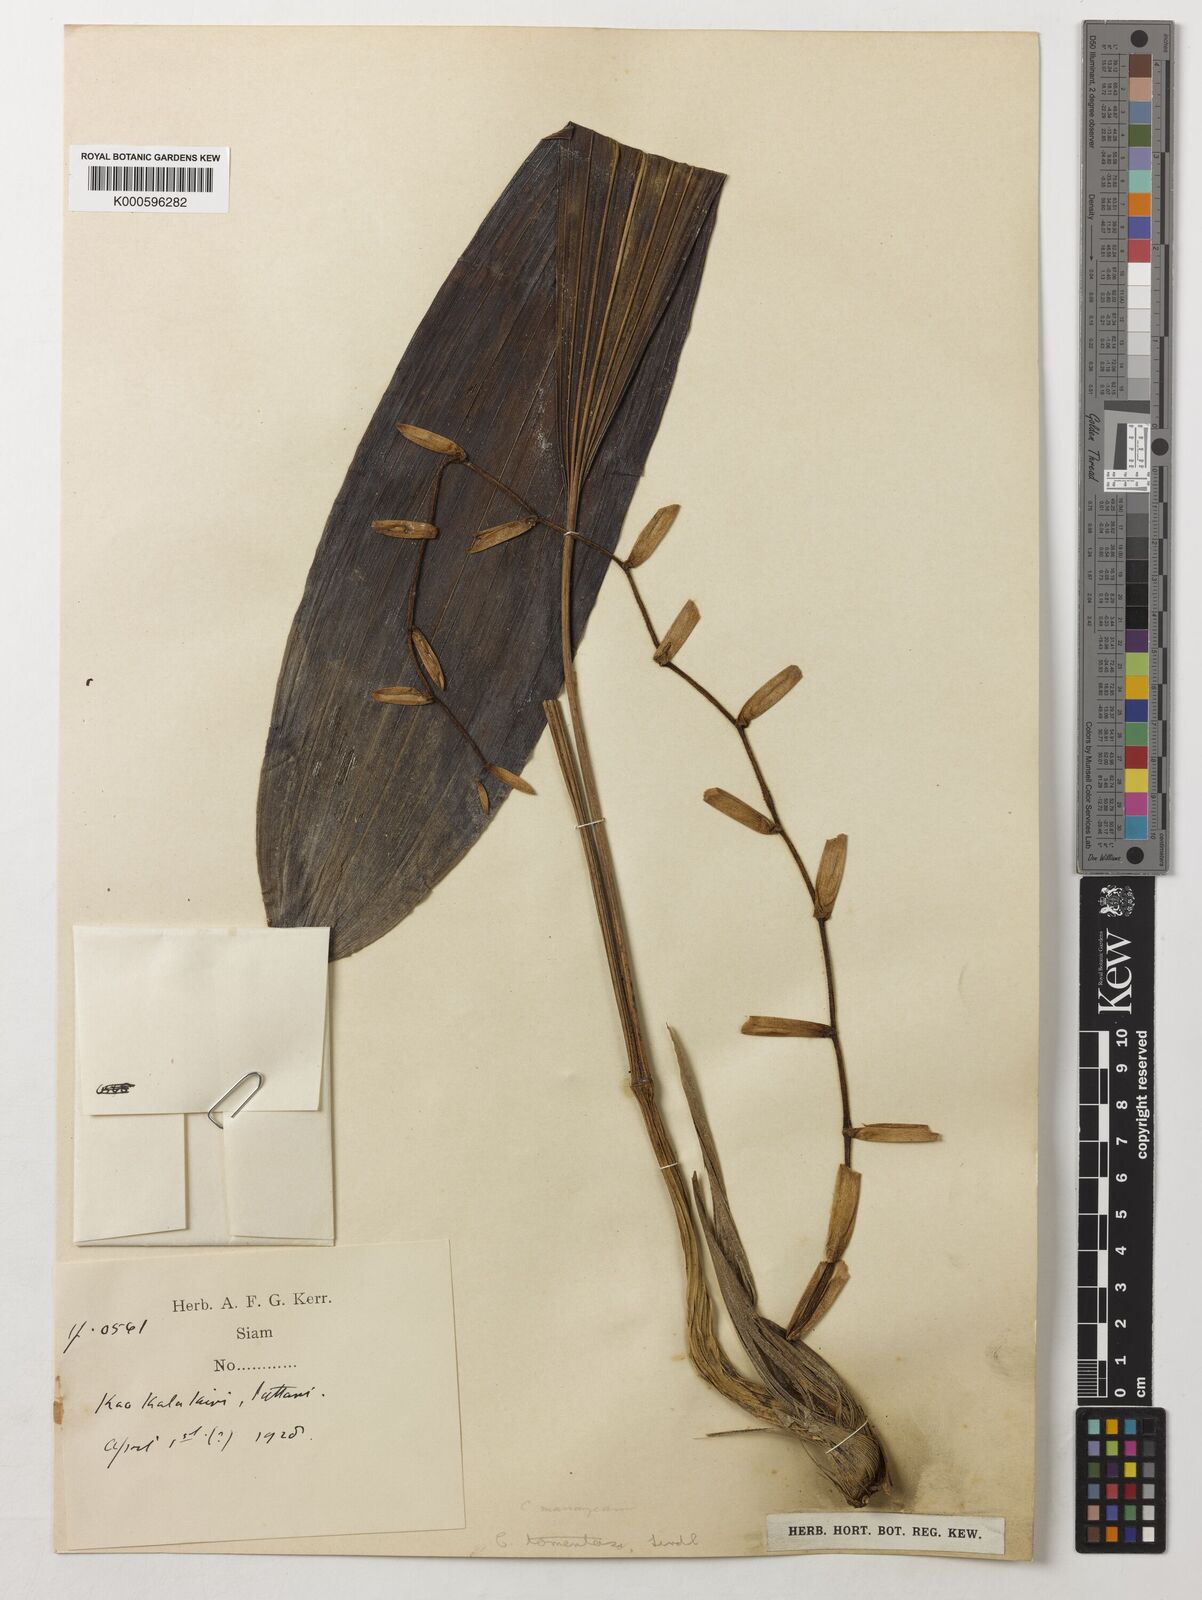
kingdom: Plantae
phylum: Tracheophyta
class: Liliopsida
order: Asparagales
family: Orchidaceae
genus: Coelogyne
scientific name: Coelogyne tomentosa
